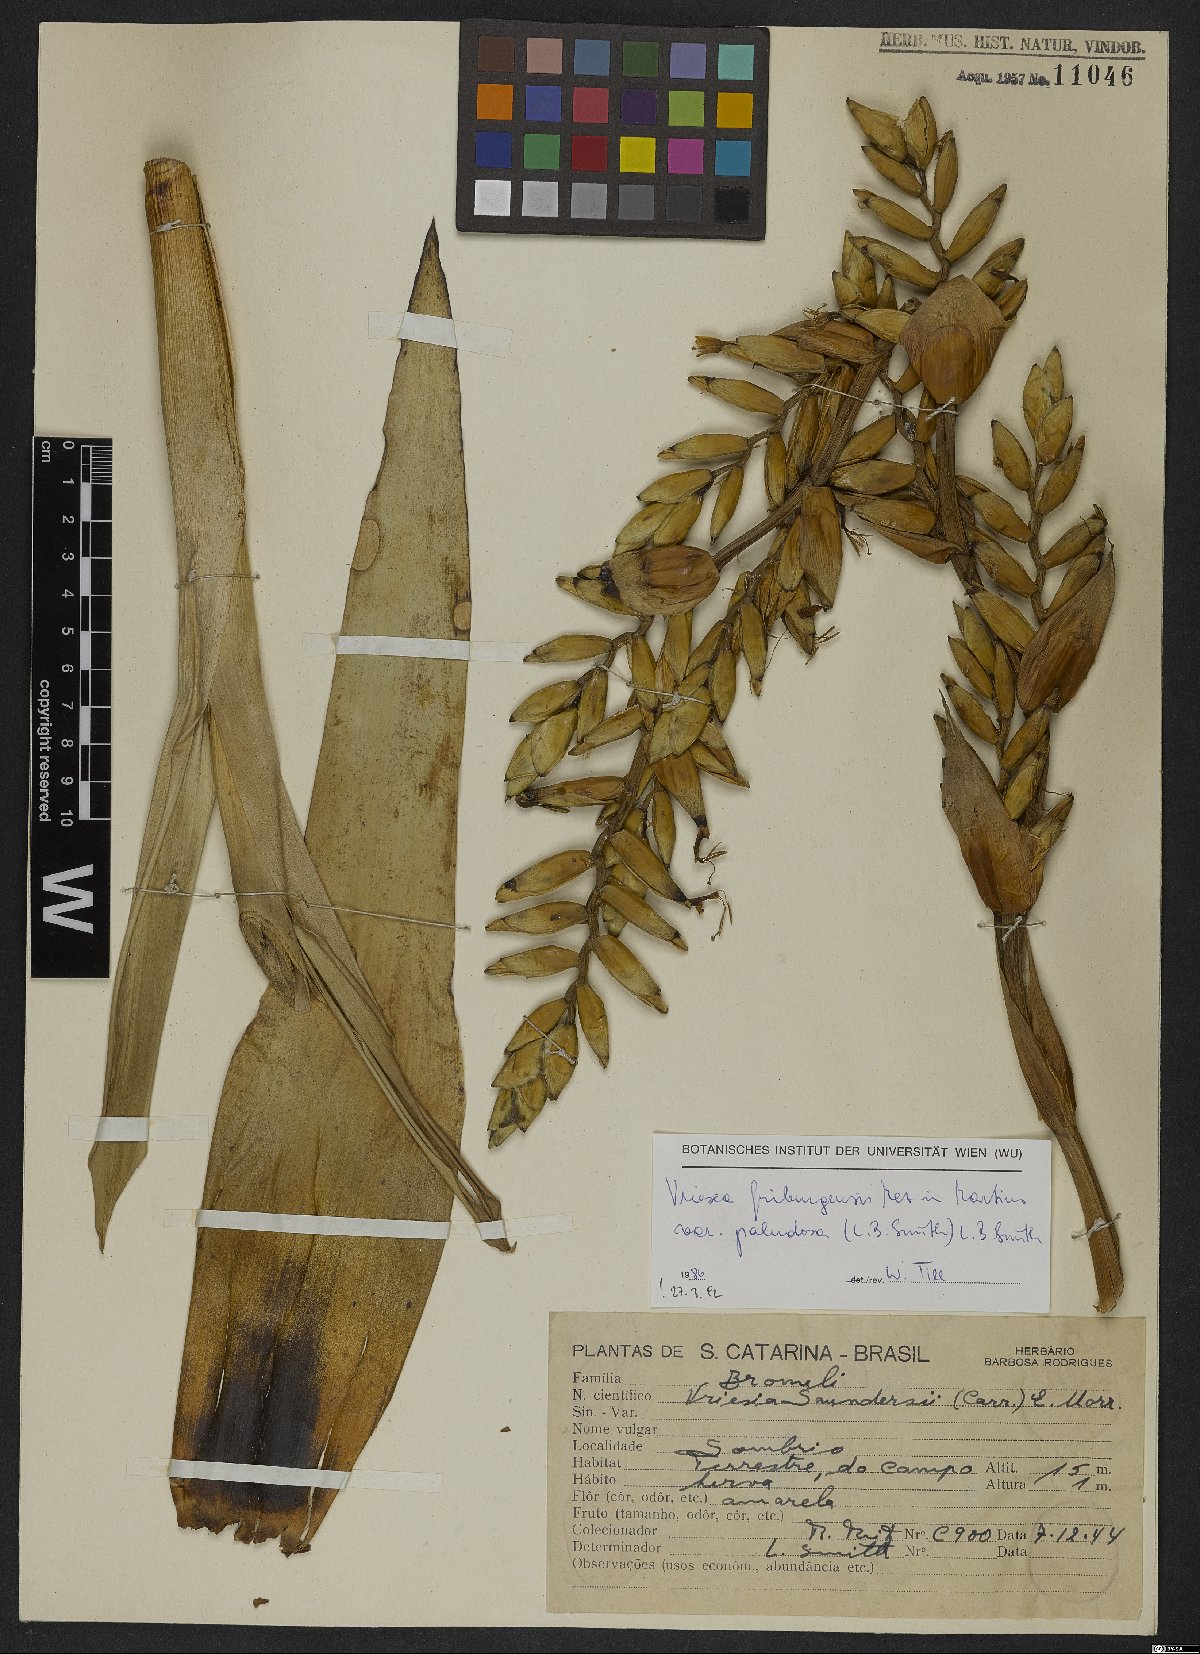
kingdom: Plantae
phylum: Tracheophyta
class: Liliopsida
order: Poales
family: Bromeliaceae
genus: Vriesea
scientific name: Vriesea friburgensis
